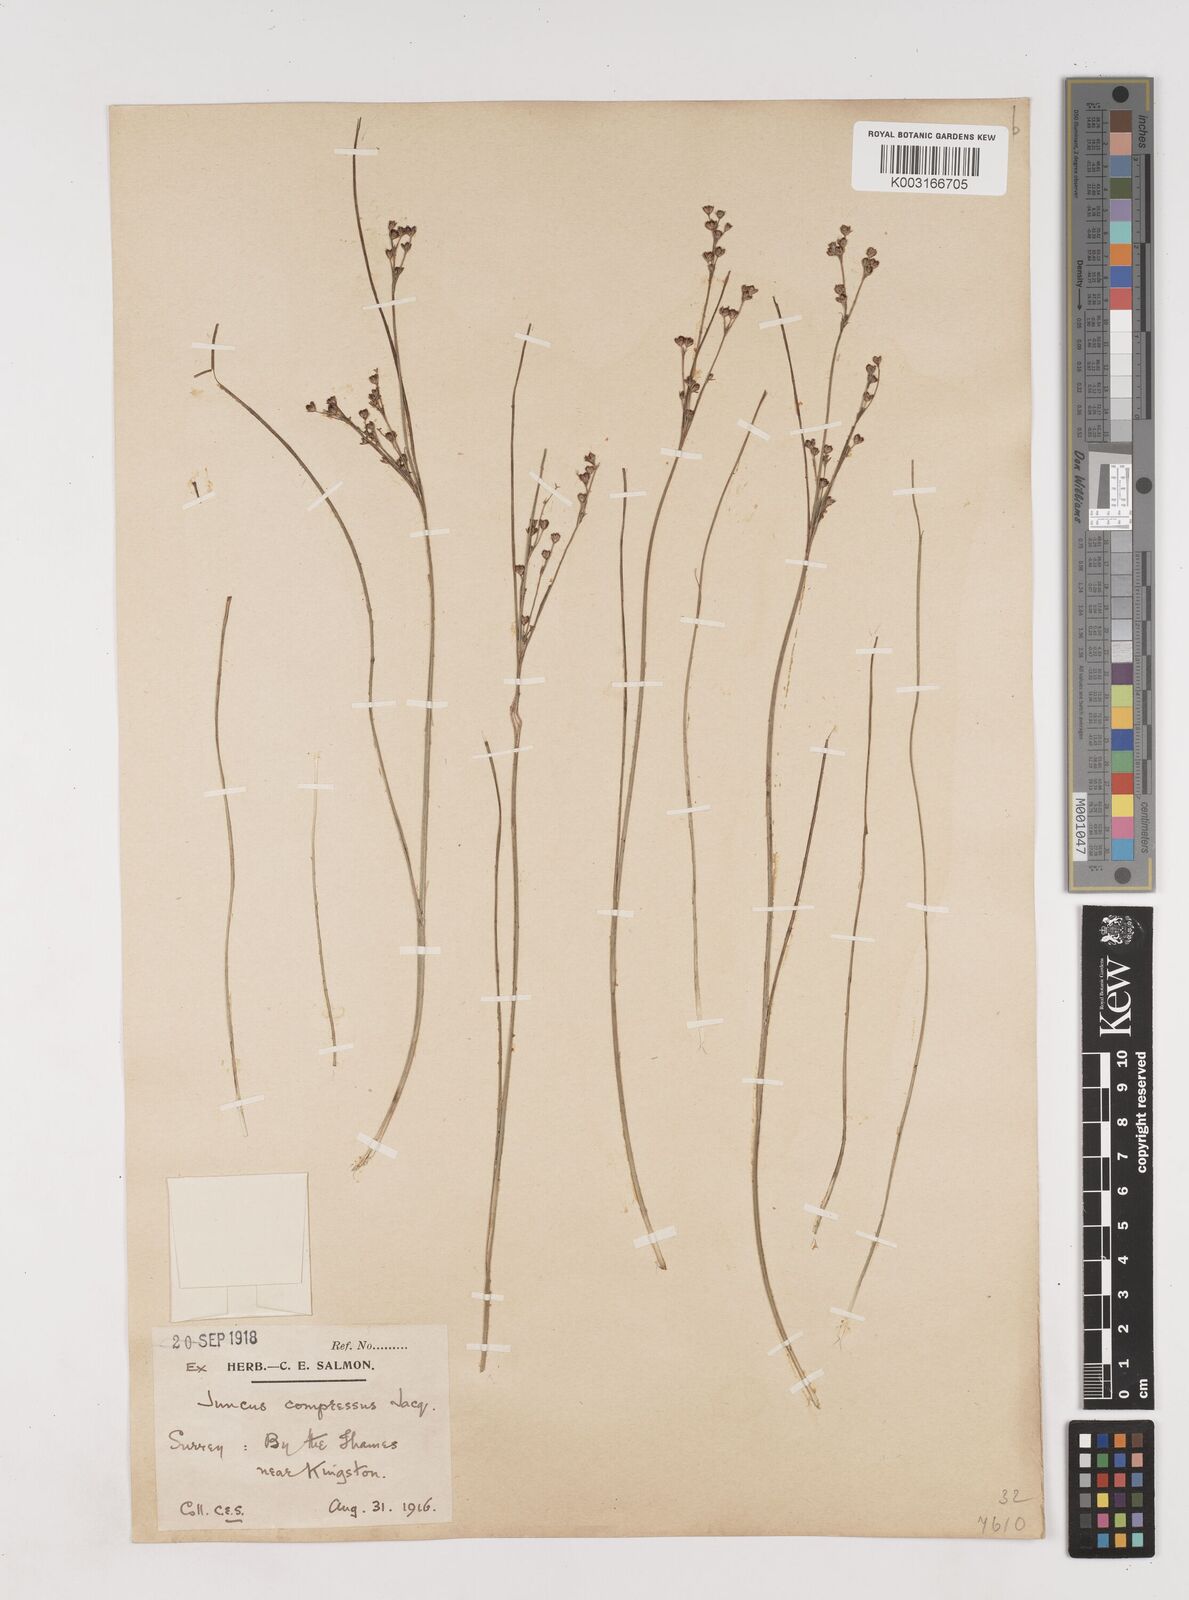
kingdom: Plantae
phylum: Tracheophyta
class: Liliopsida
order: Poales
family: Juncaceae
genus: Juncus
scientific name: Juncus compressus
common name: Round-fruited rush
